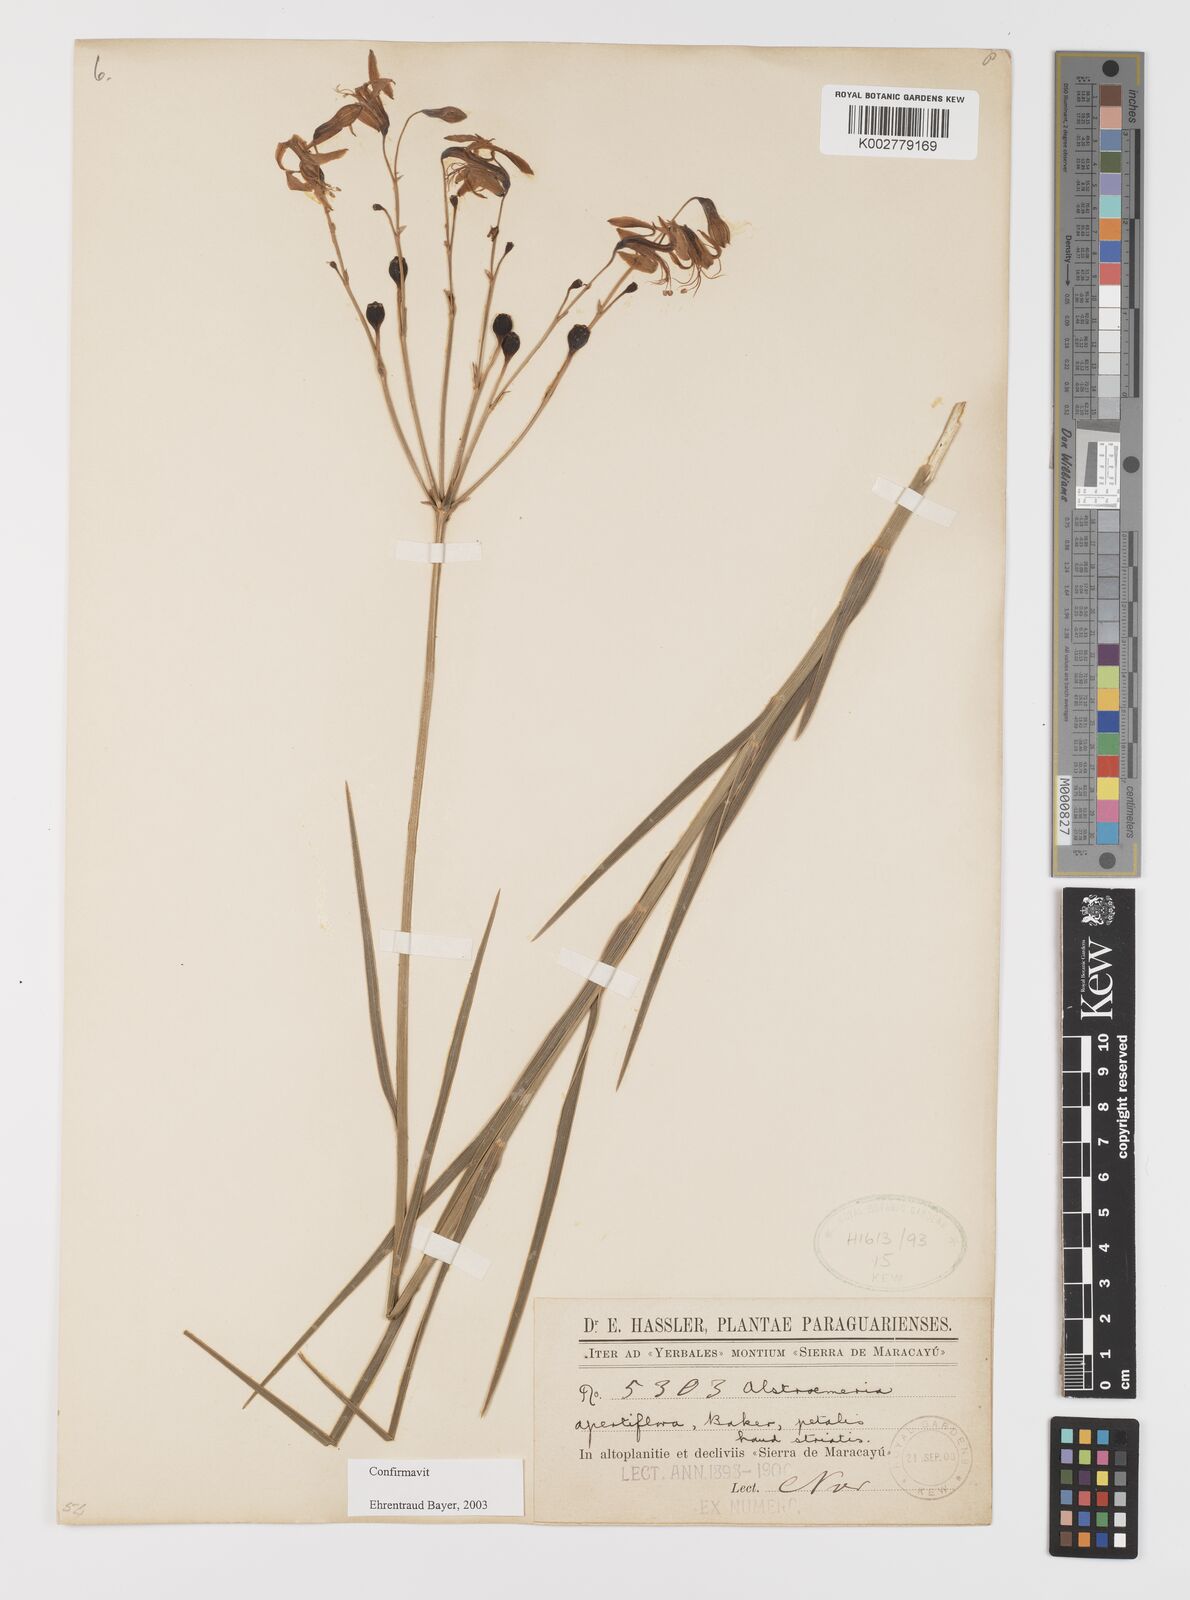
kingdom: Plantae
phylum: Tracheophyta
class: Liliopsida
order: Liliales
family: Alstroemeriaceae
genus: Alstroemeria
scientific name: Alstroemeria apertiflora
